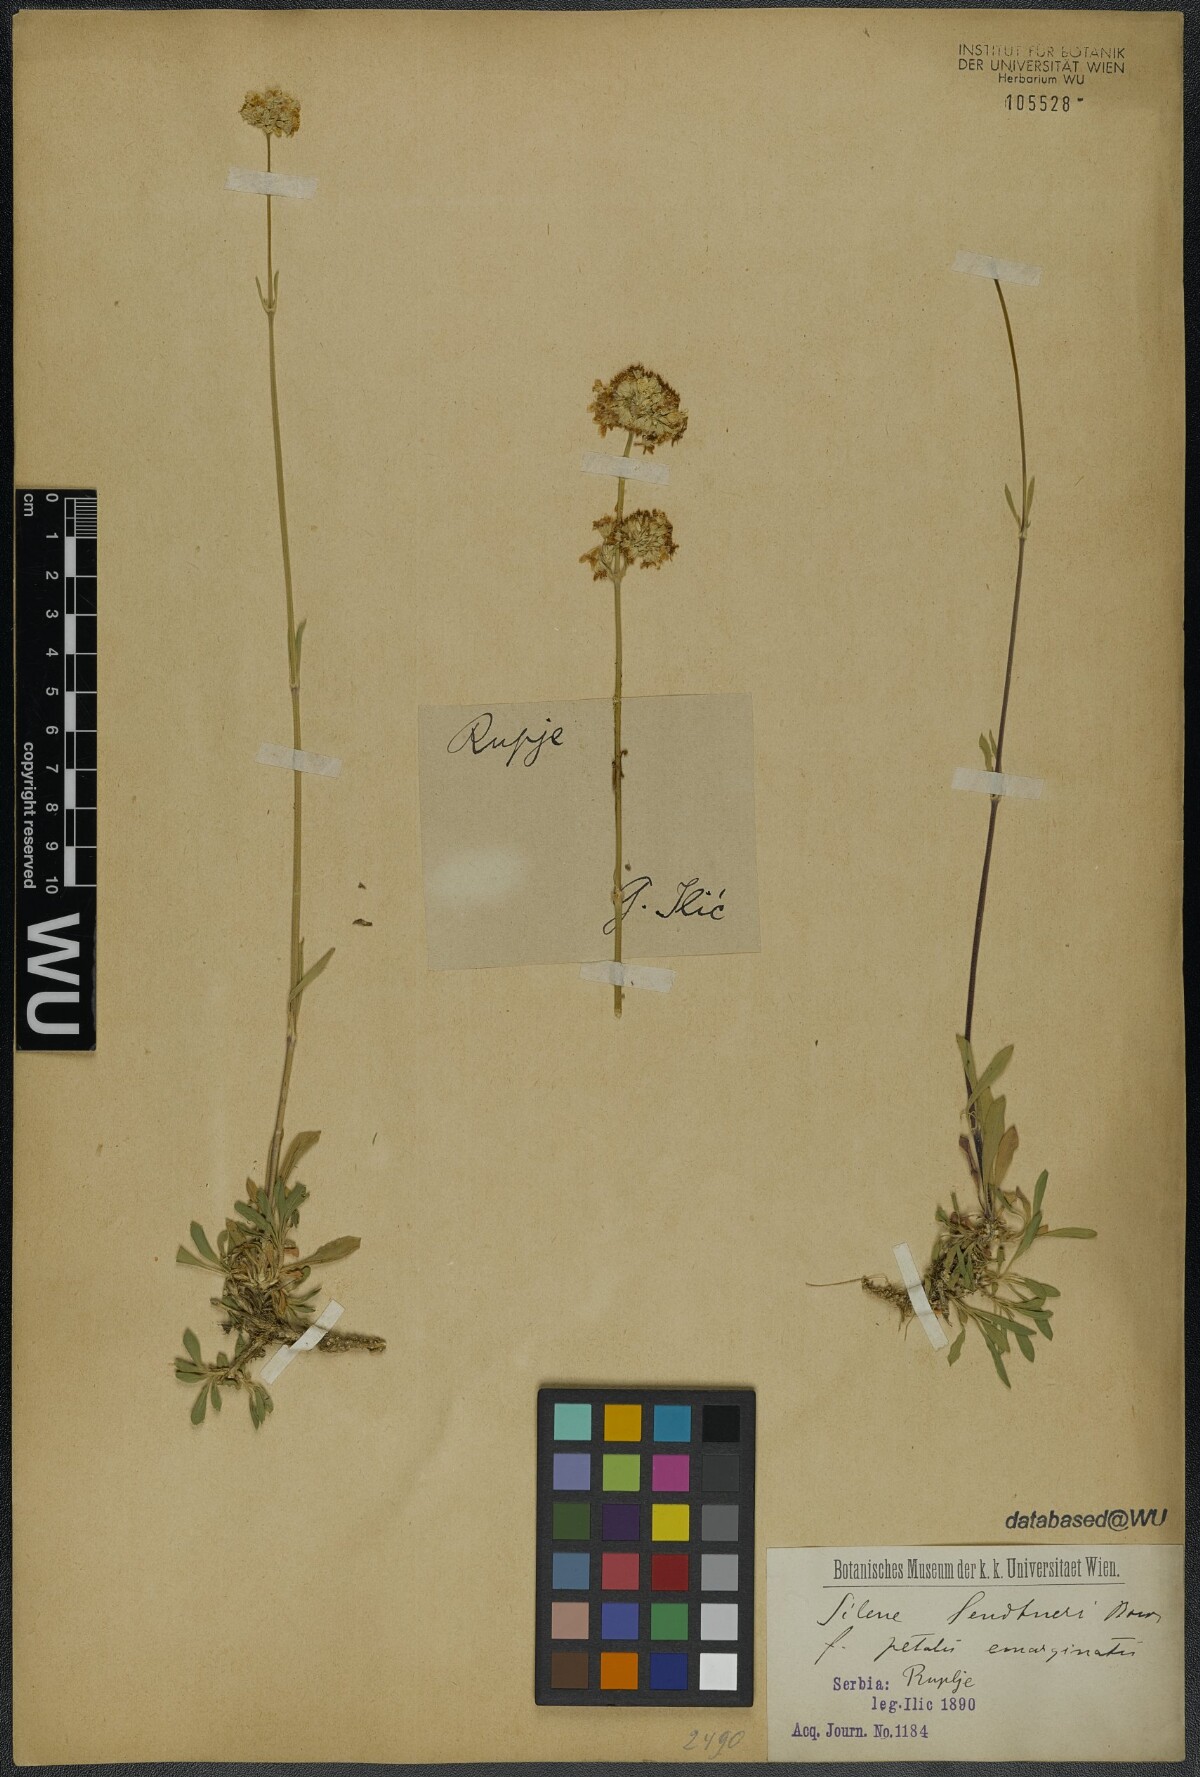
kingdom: Plantae
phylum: Tracheophyta
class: Magnoliopsida
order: Caryophyllales
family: Caryophyllaceae
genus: Silene
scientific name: Silene sendtneri
